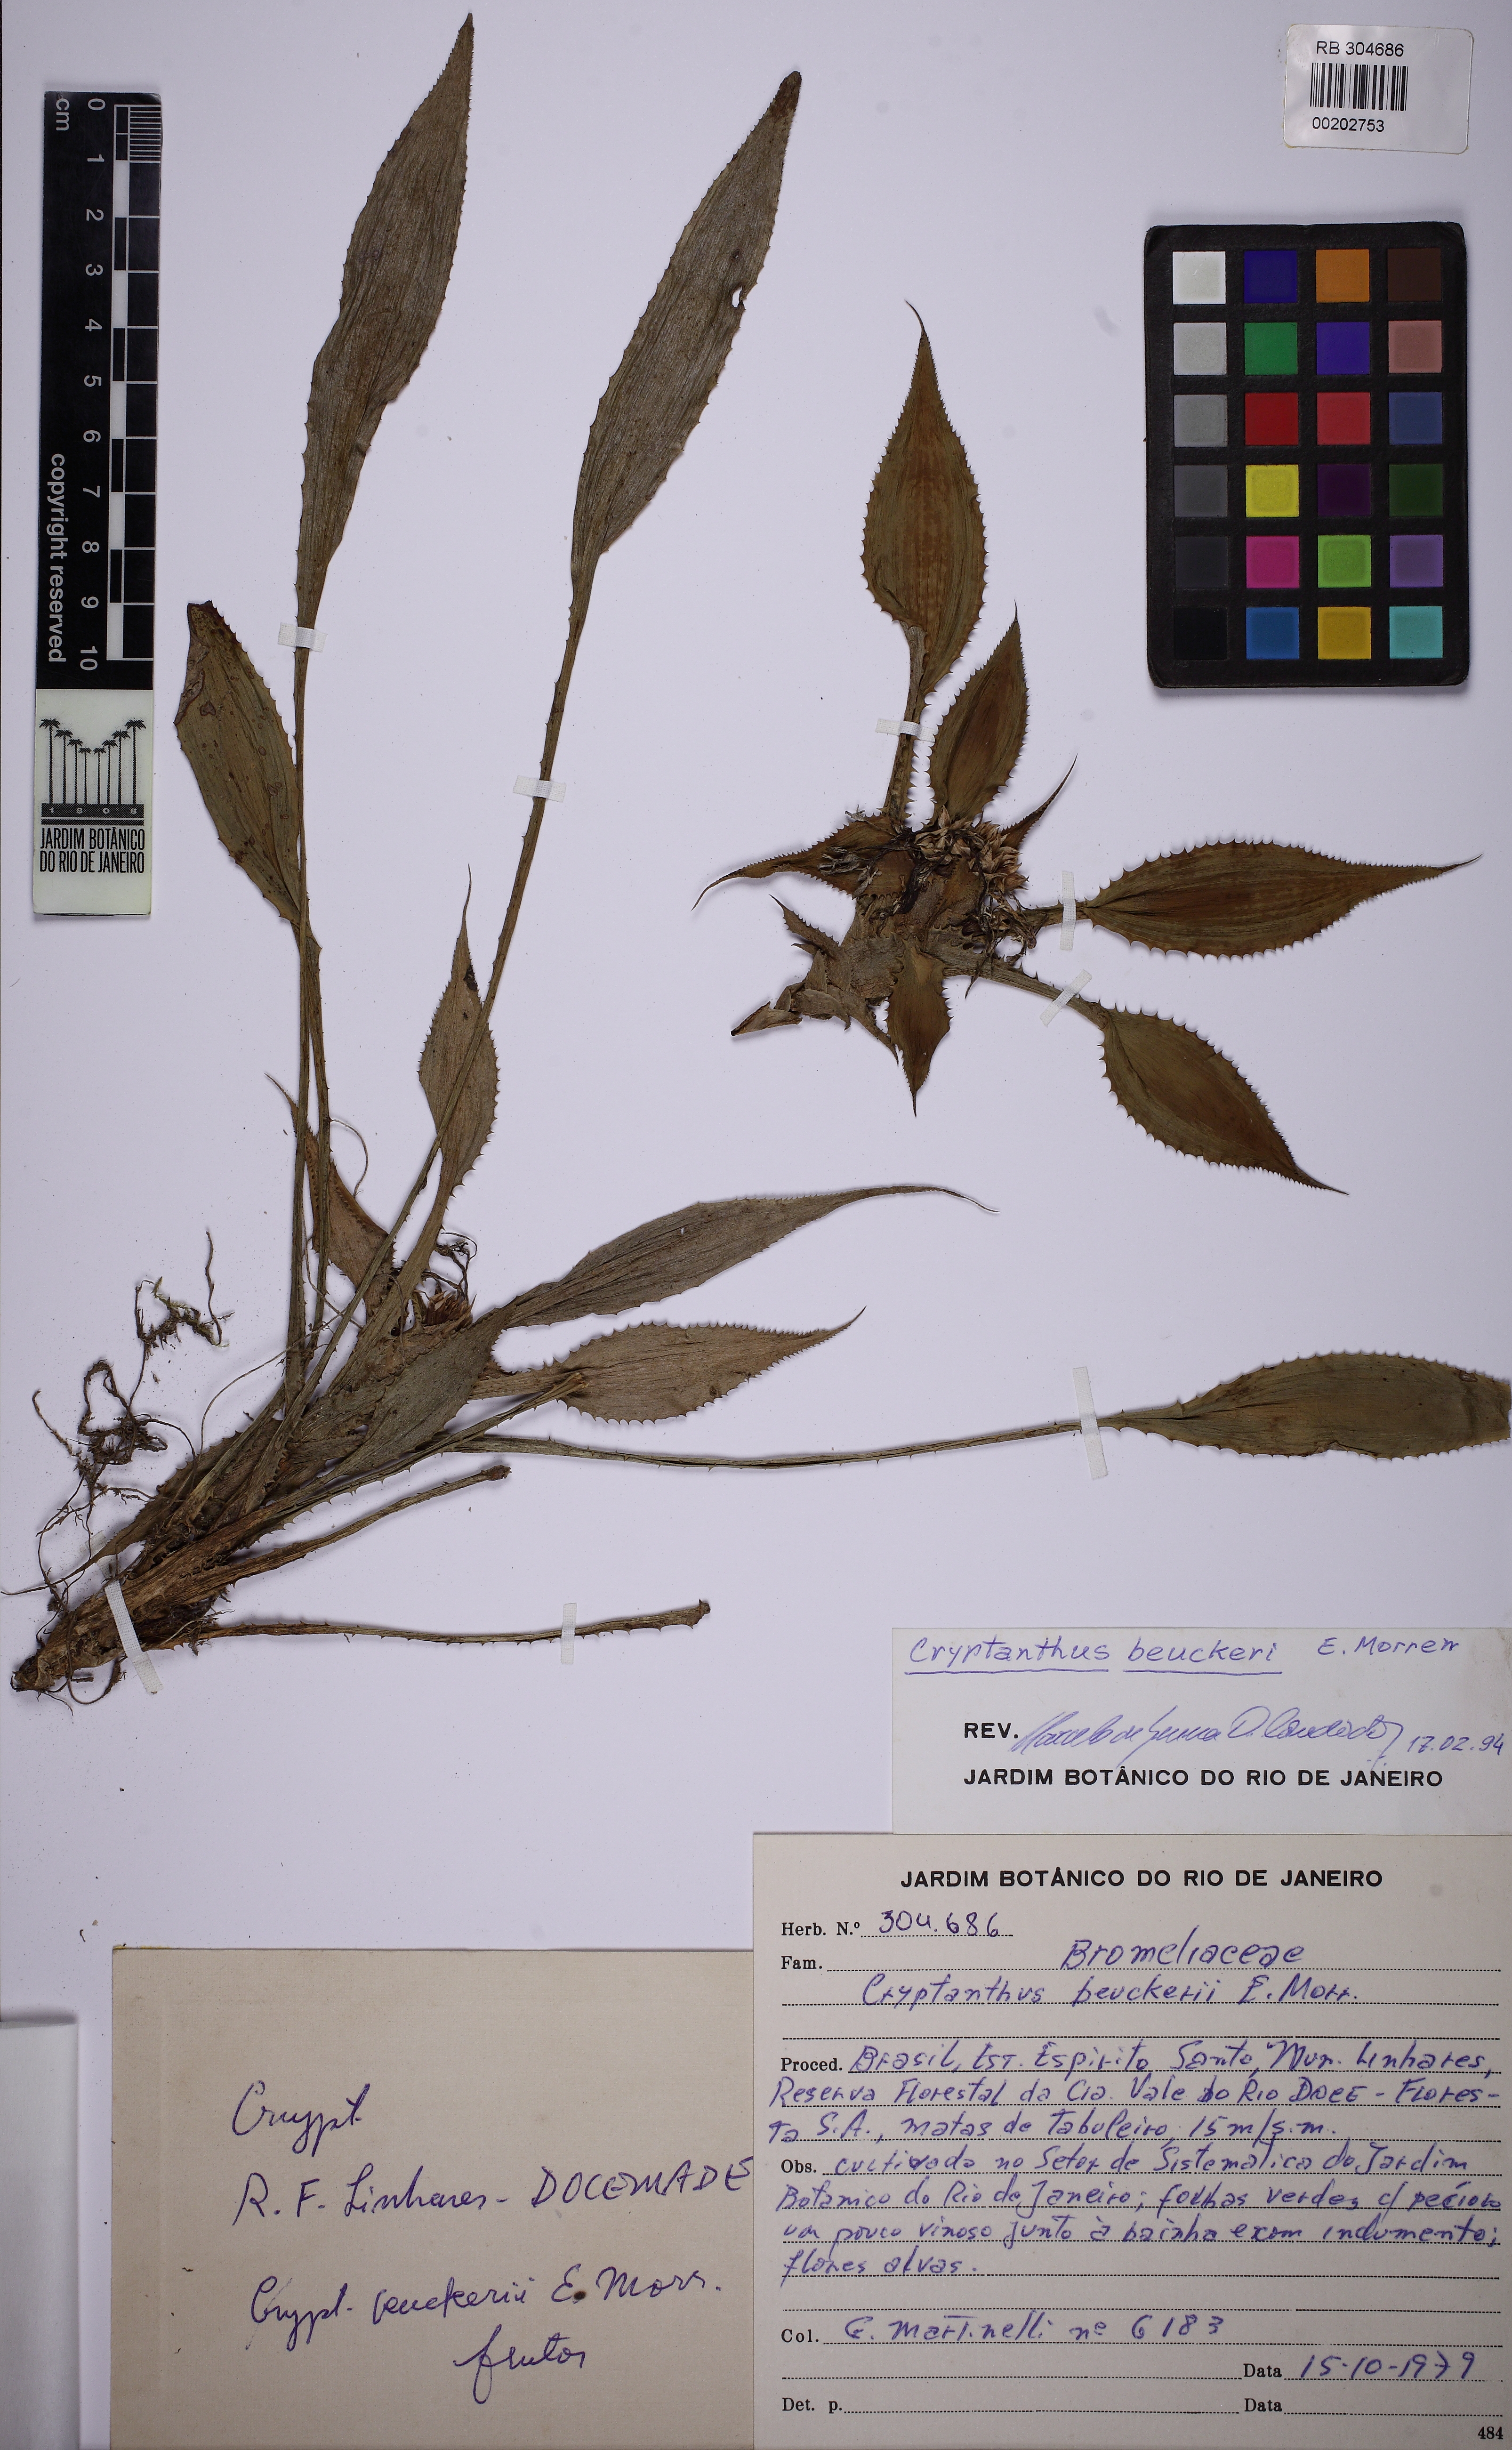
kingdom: Plantae
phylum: Tracheophyta
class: Liliopsida
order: Poales
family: Bromeliaceae
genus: Cryptanthus
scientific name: Cryptanthus beuckeri
